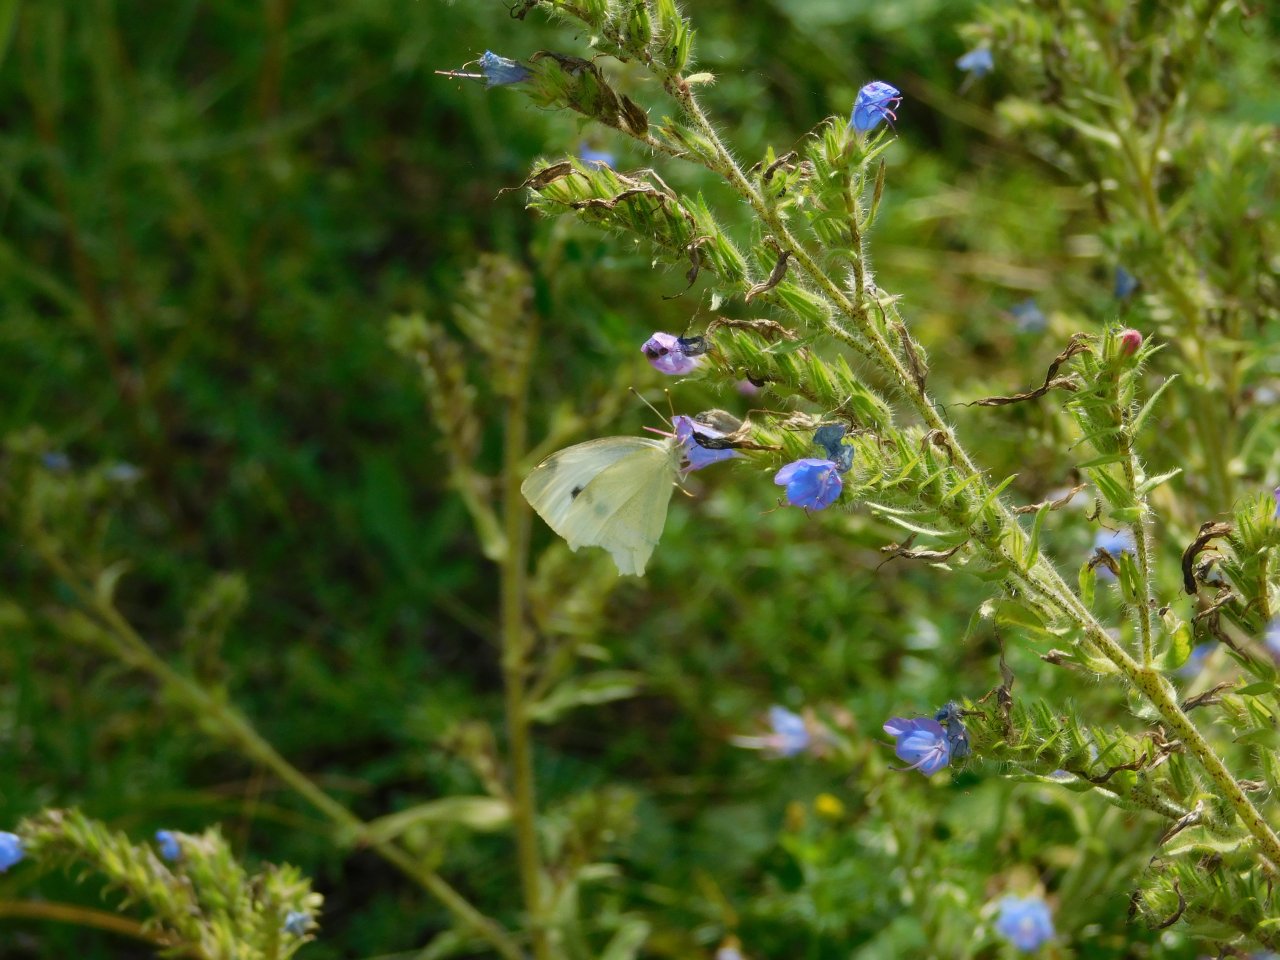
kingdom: Animalia
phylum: Arthropoda
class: Insecta
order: Lepidoptera
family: Pieridae
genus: Pieris
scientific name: Pieris rapae
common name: Cabbage White
